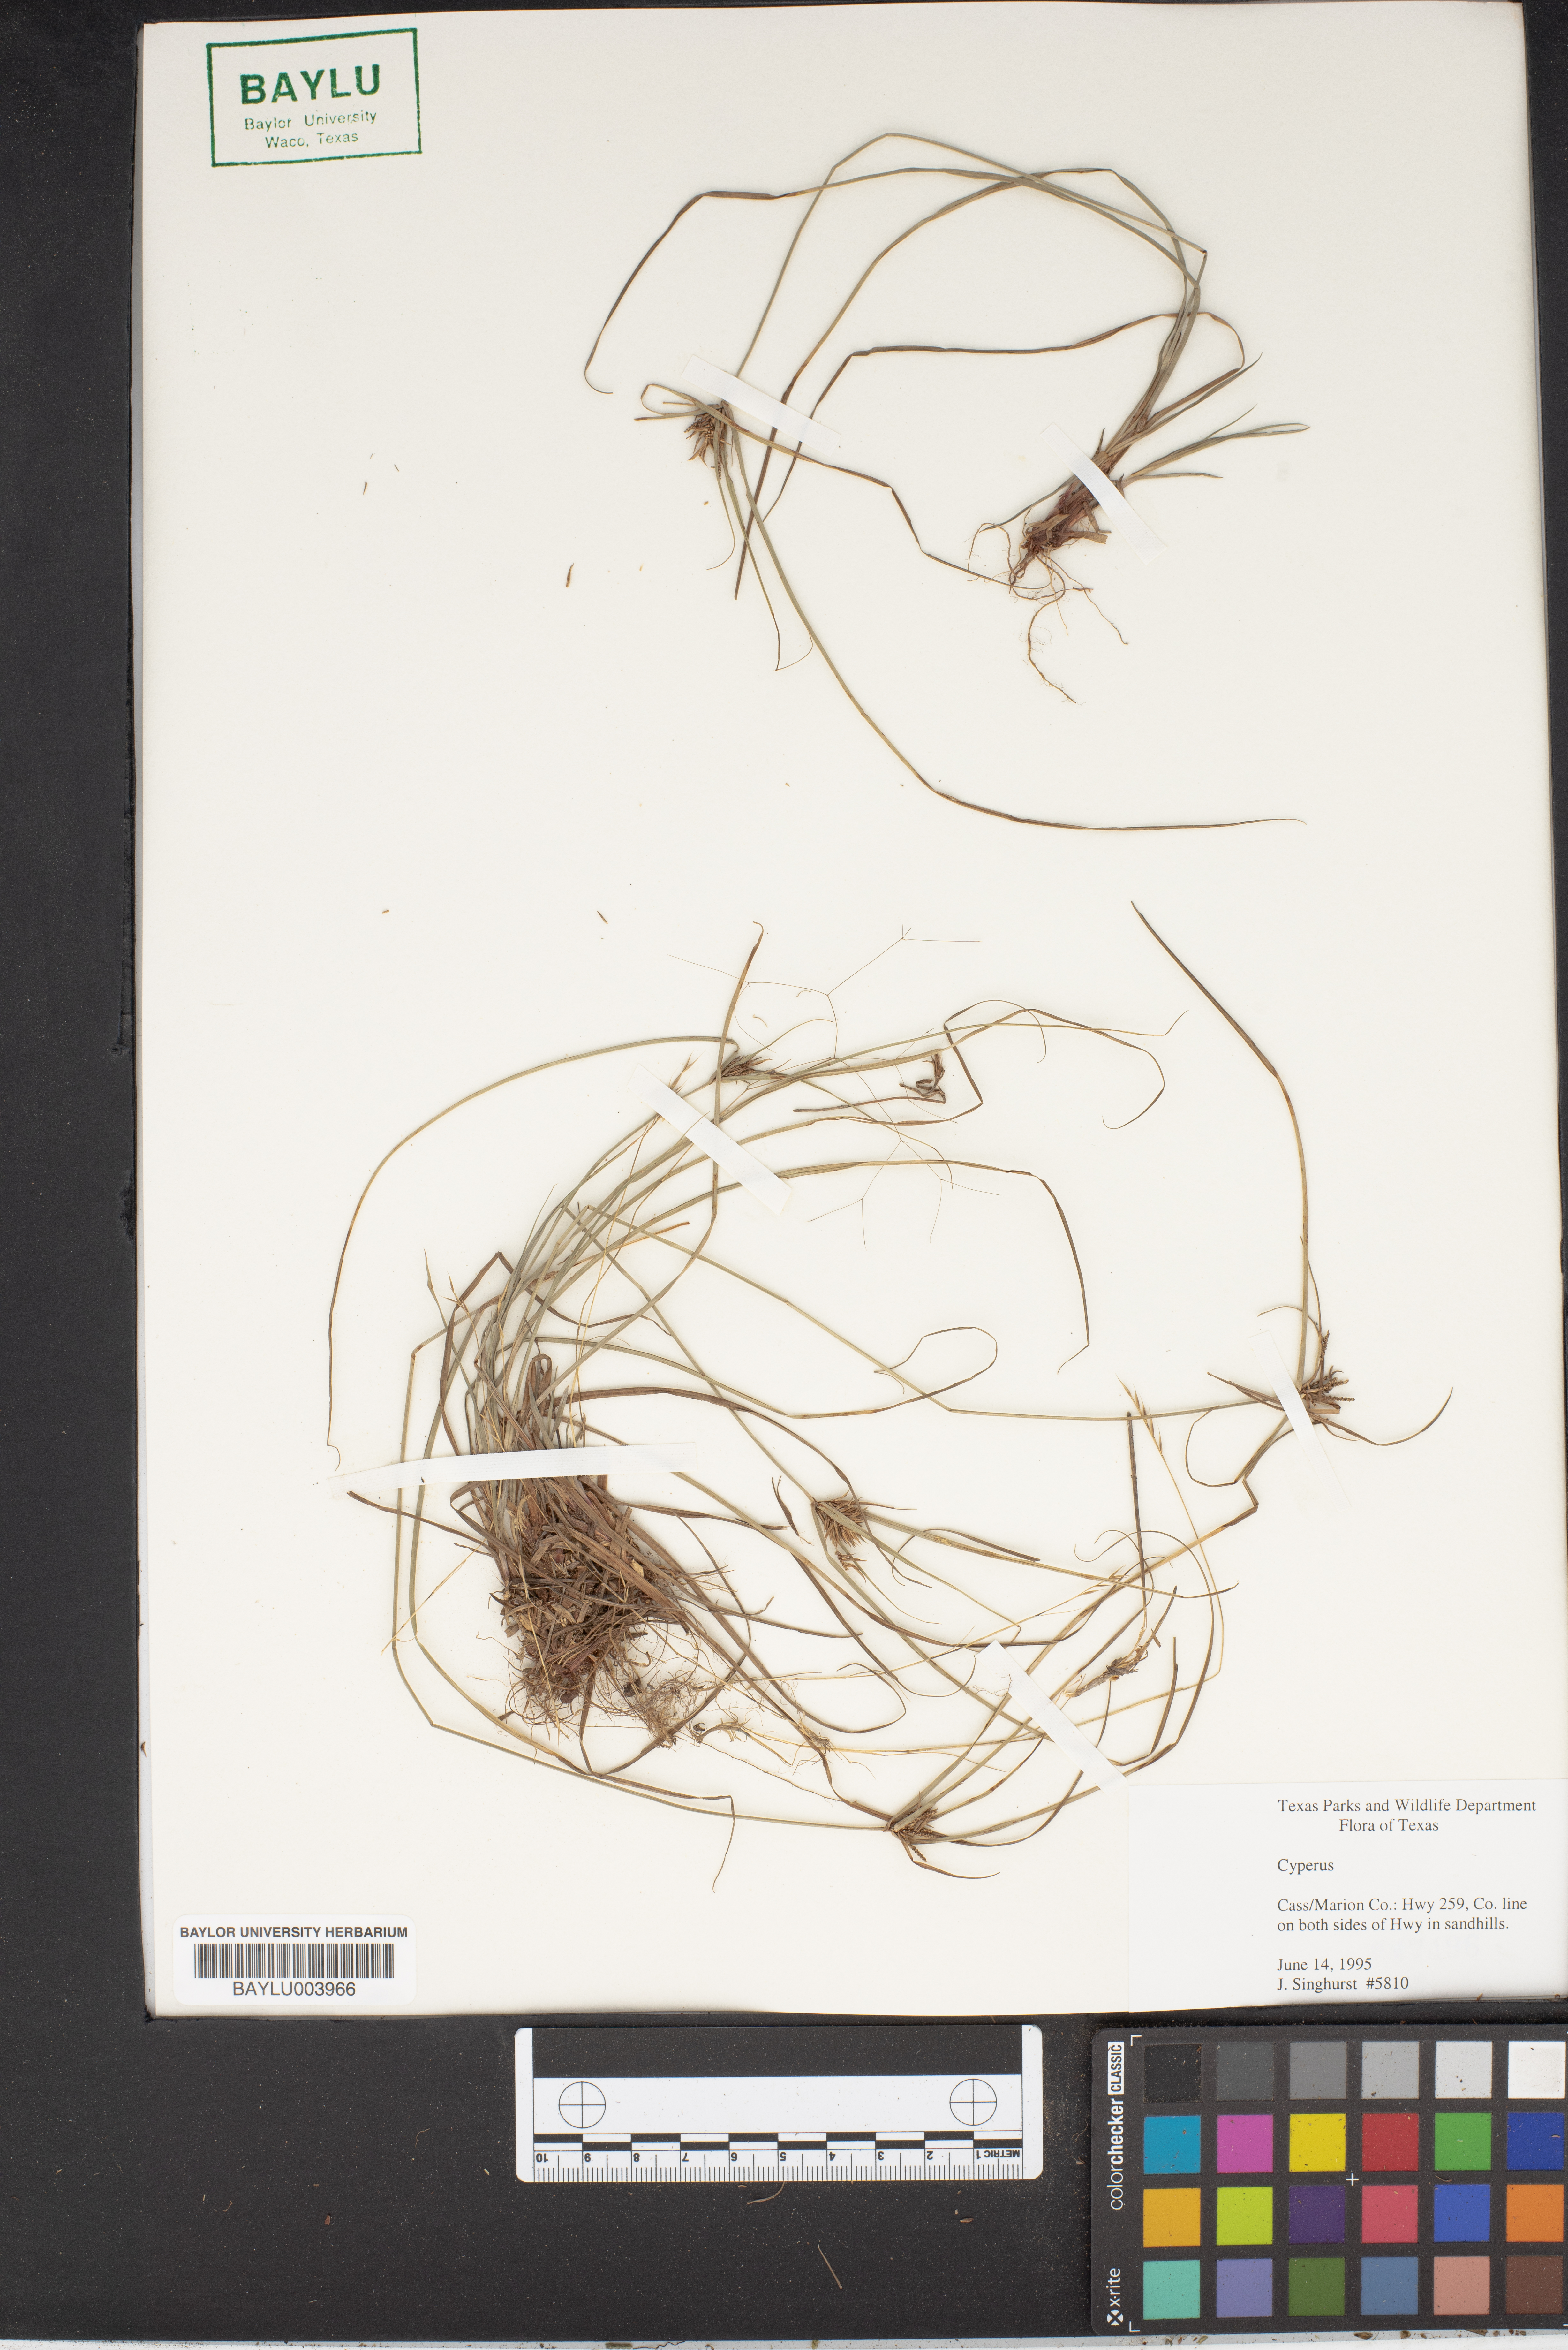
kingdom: Plantae
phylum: Tracheophyta
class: Liliopsida
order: Poales
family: Cyperaceae
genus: Cyperus
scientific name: Cyperus
